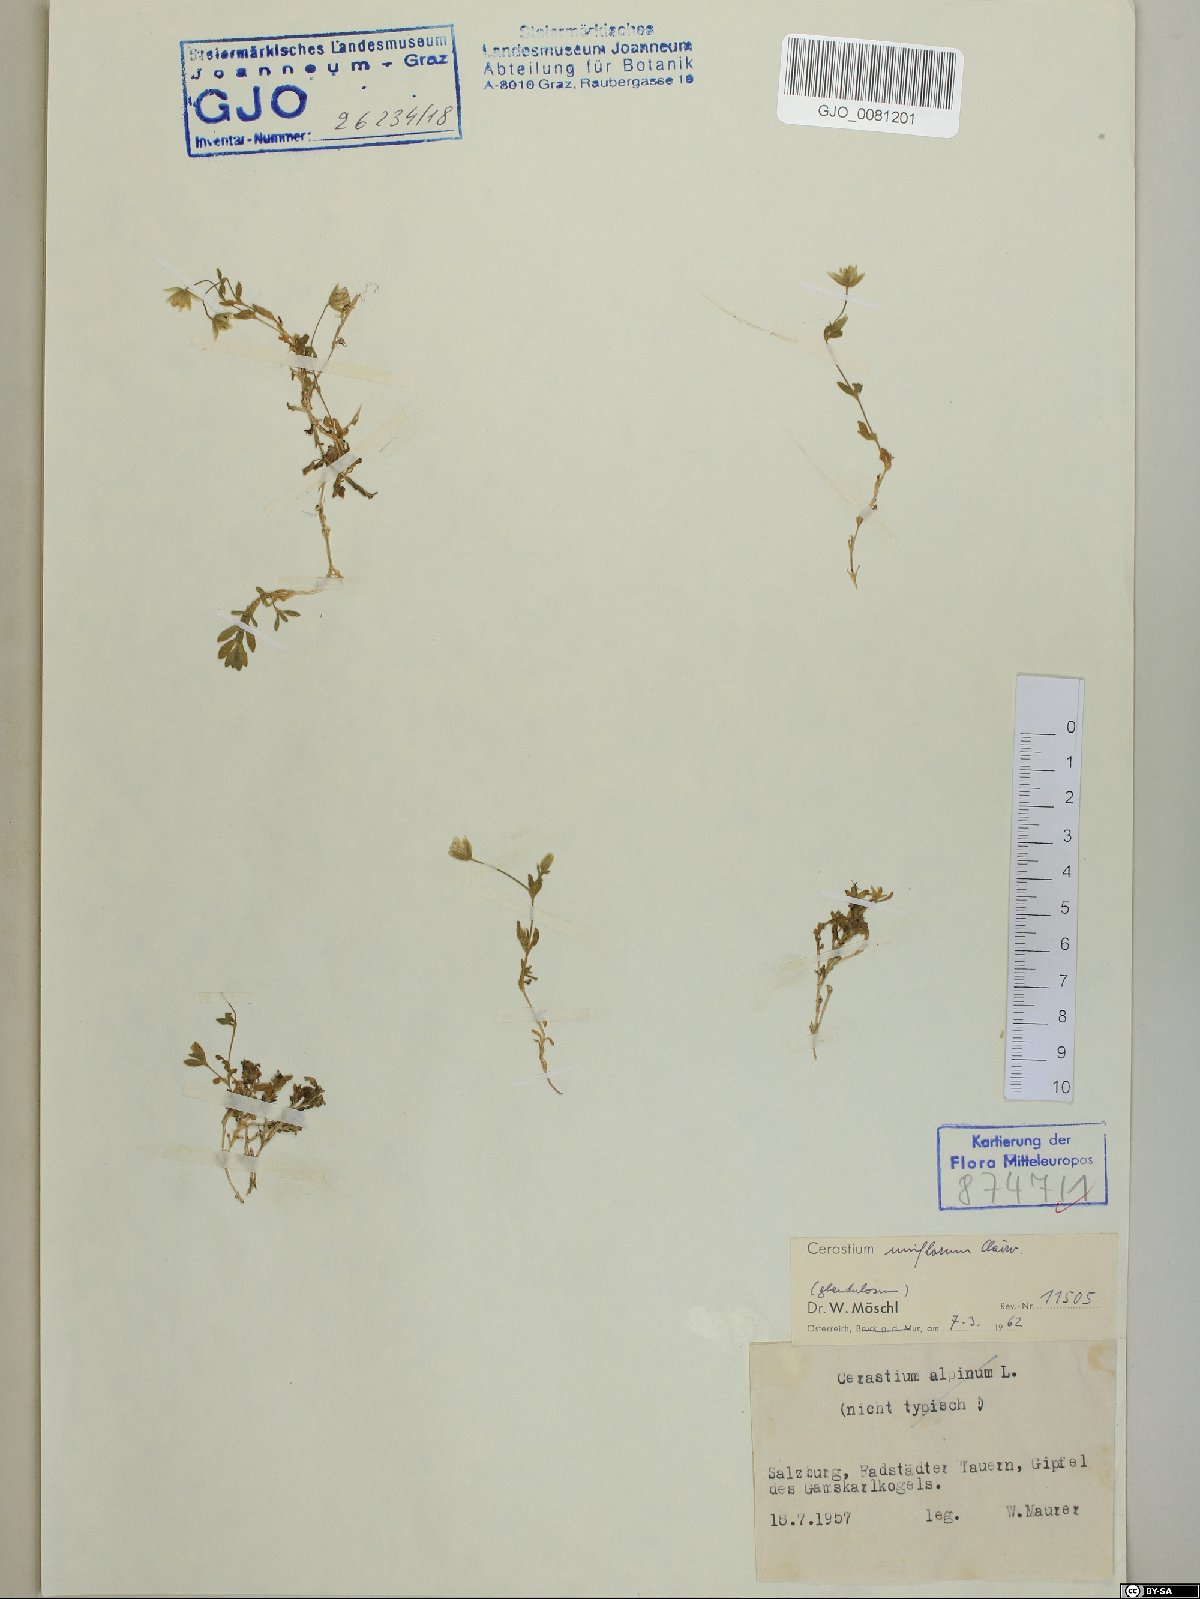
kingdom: Plantae
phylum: Tracheophyta
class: Magnoliopsida
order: Caryophyllales
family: Caryophyllaceae
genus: Cerastium
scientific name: Cerastium uniflorum
